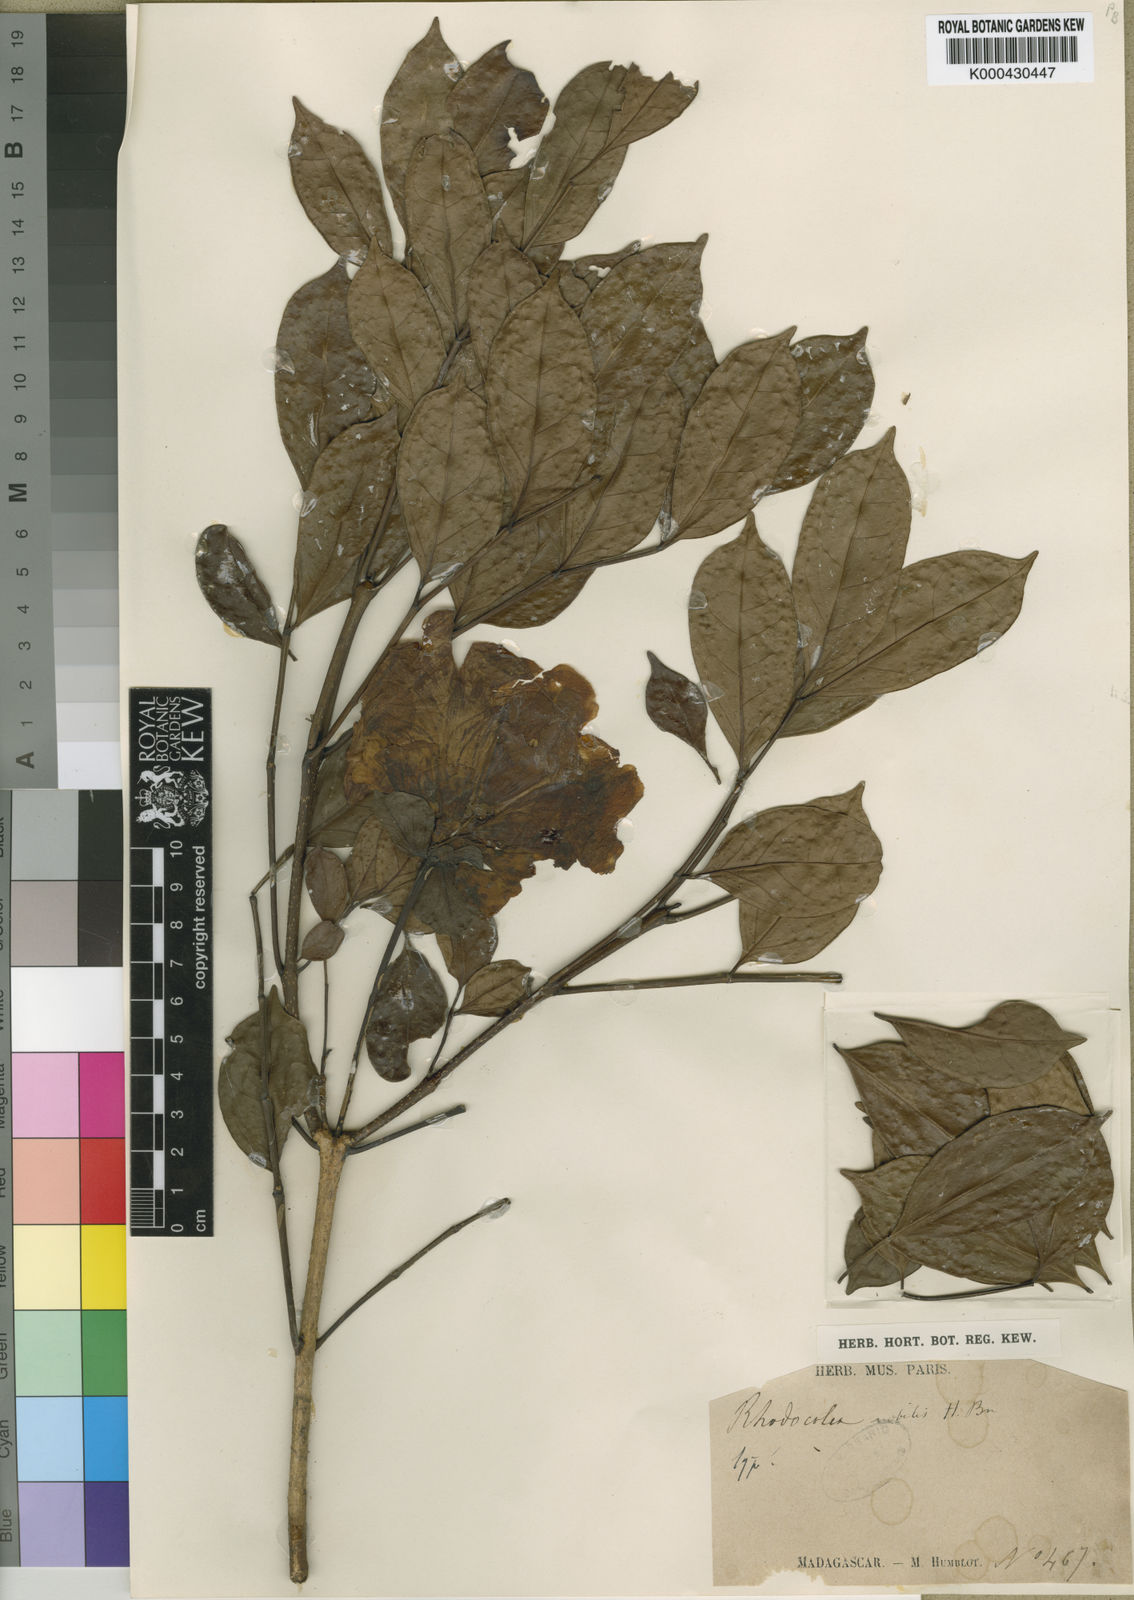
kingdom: Plantae
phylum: Tracheophyta
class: Magnoliopsida
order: Lamiales
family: Bignoniaceae
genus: Rhodocolea
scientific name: Rhodocolea involucrata
